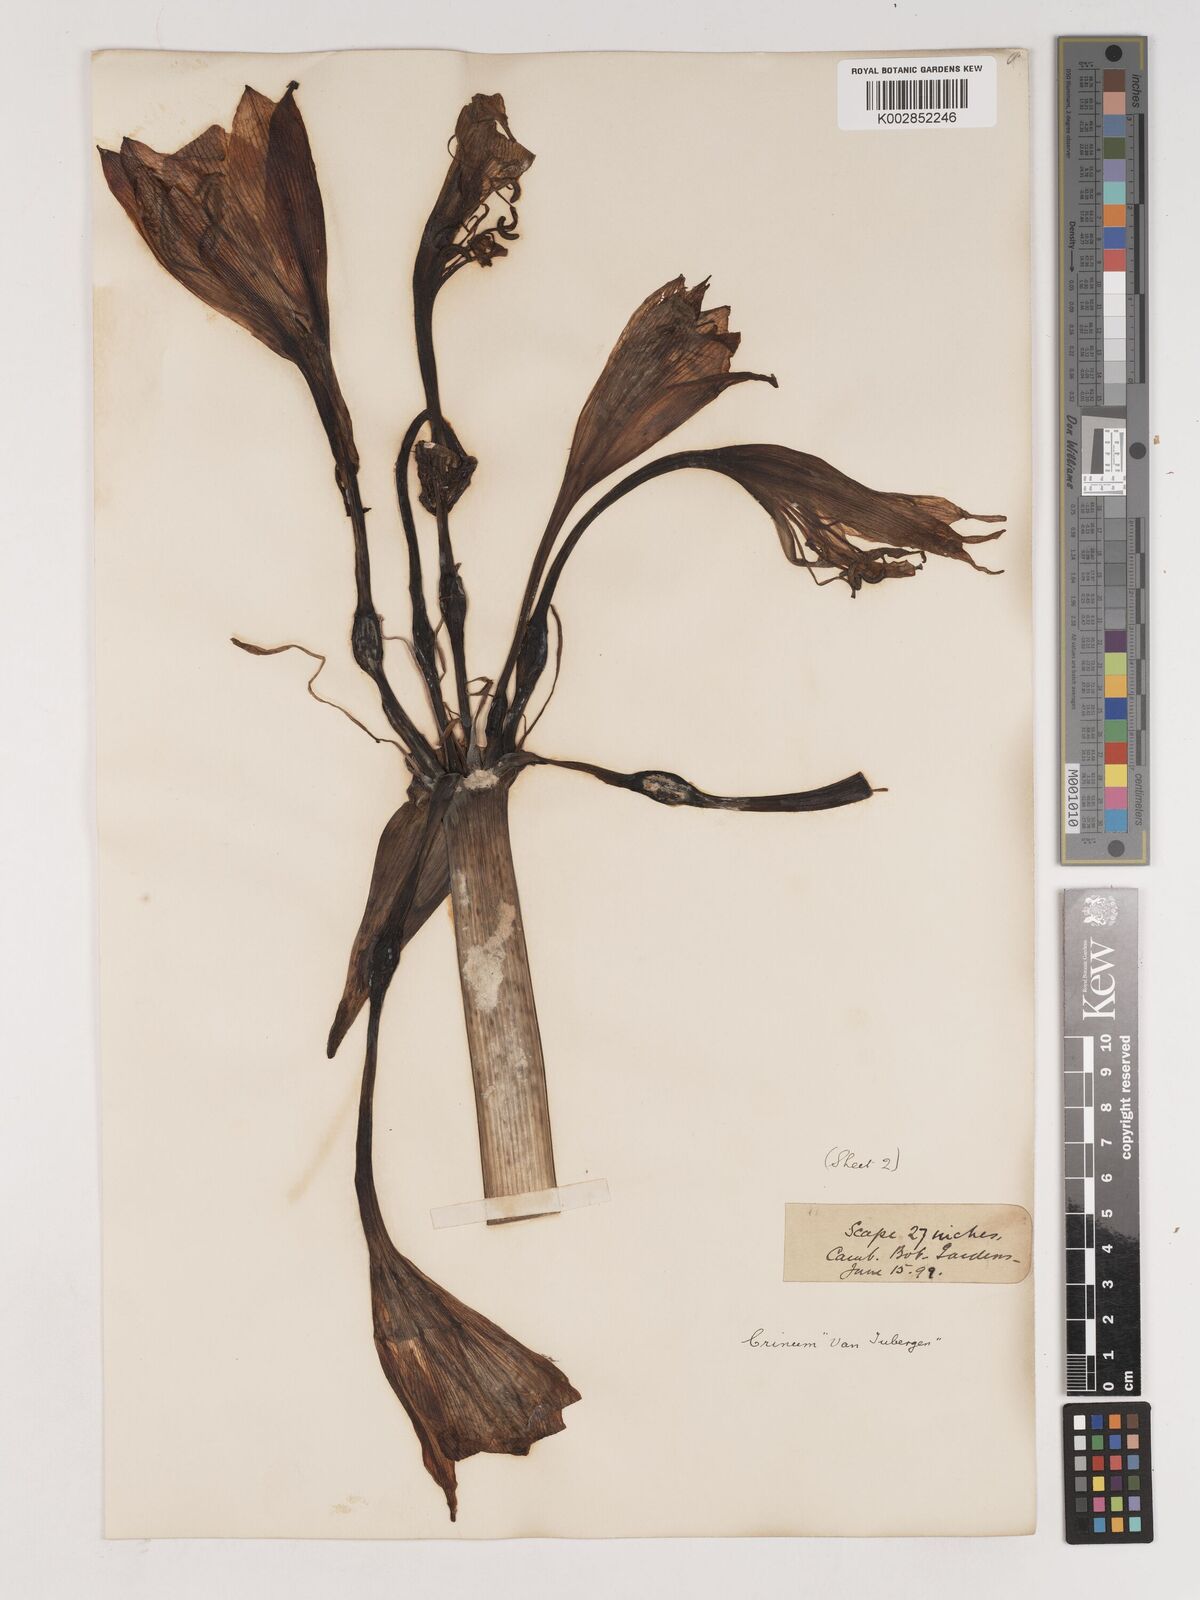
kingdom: Plantae
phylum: Tracheophyta
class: Liliopsida
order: Asparagales
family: Amaryllidaceae
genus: Ammocharis
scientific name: Ammocharis longifolia
